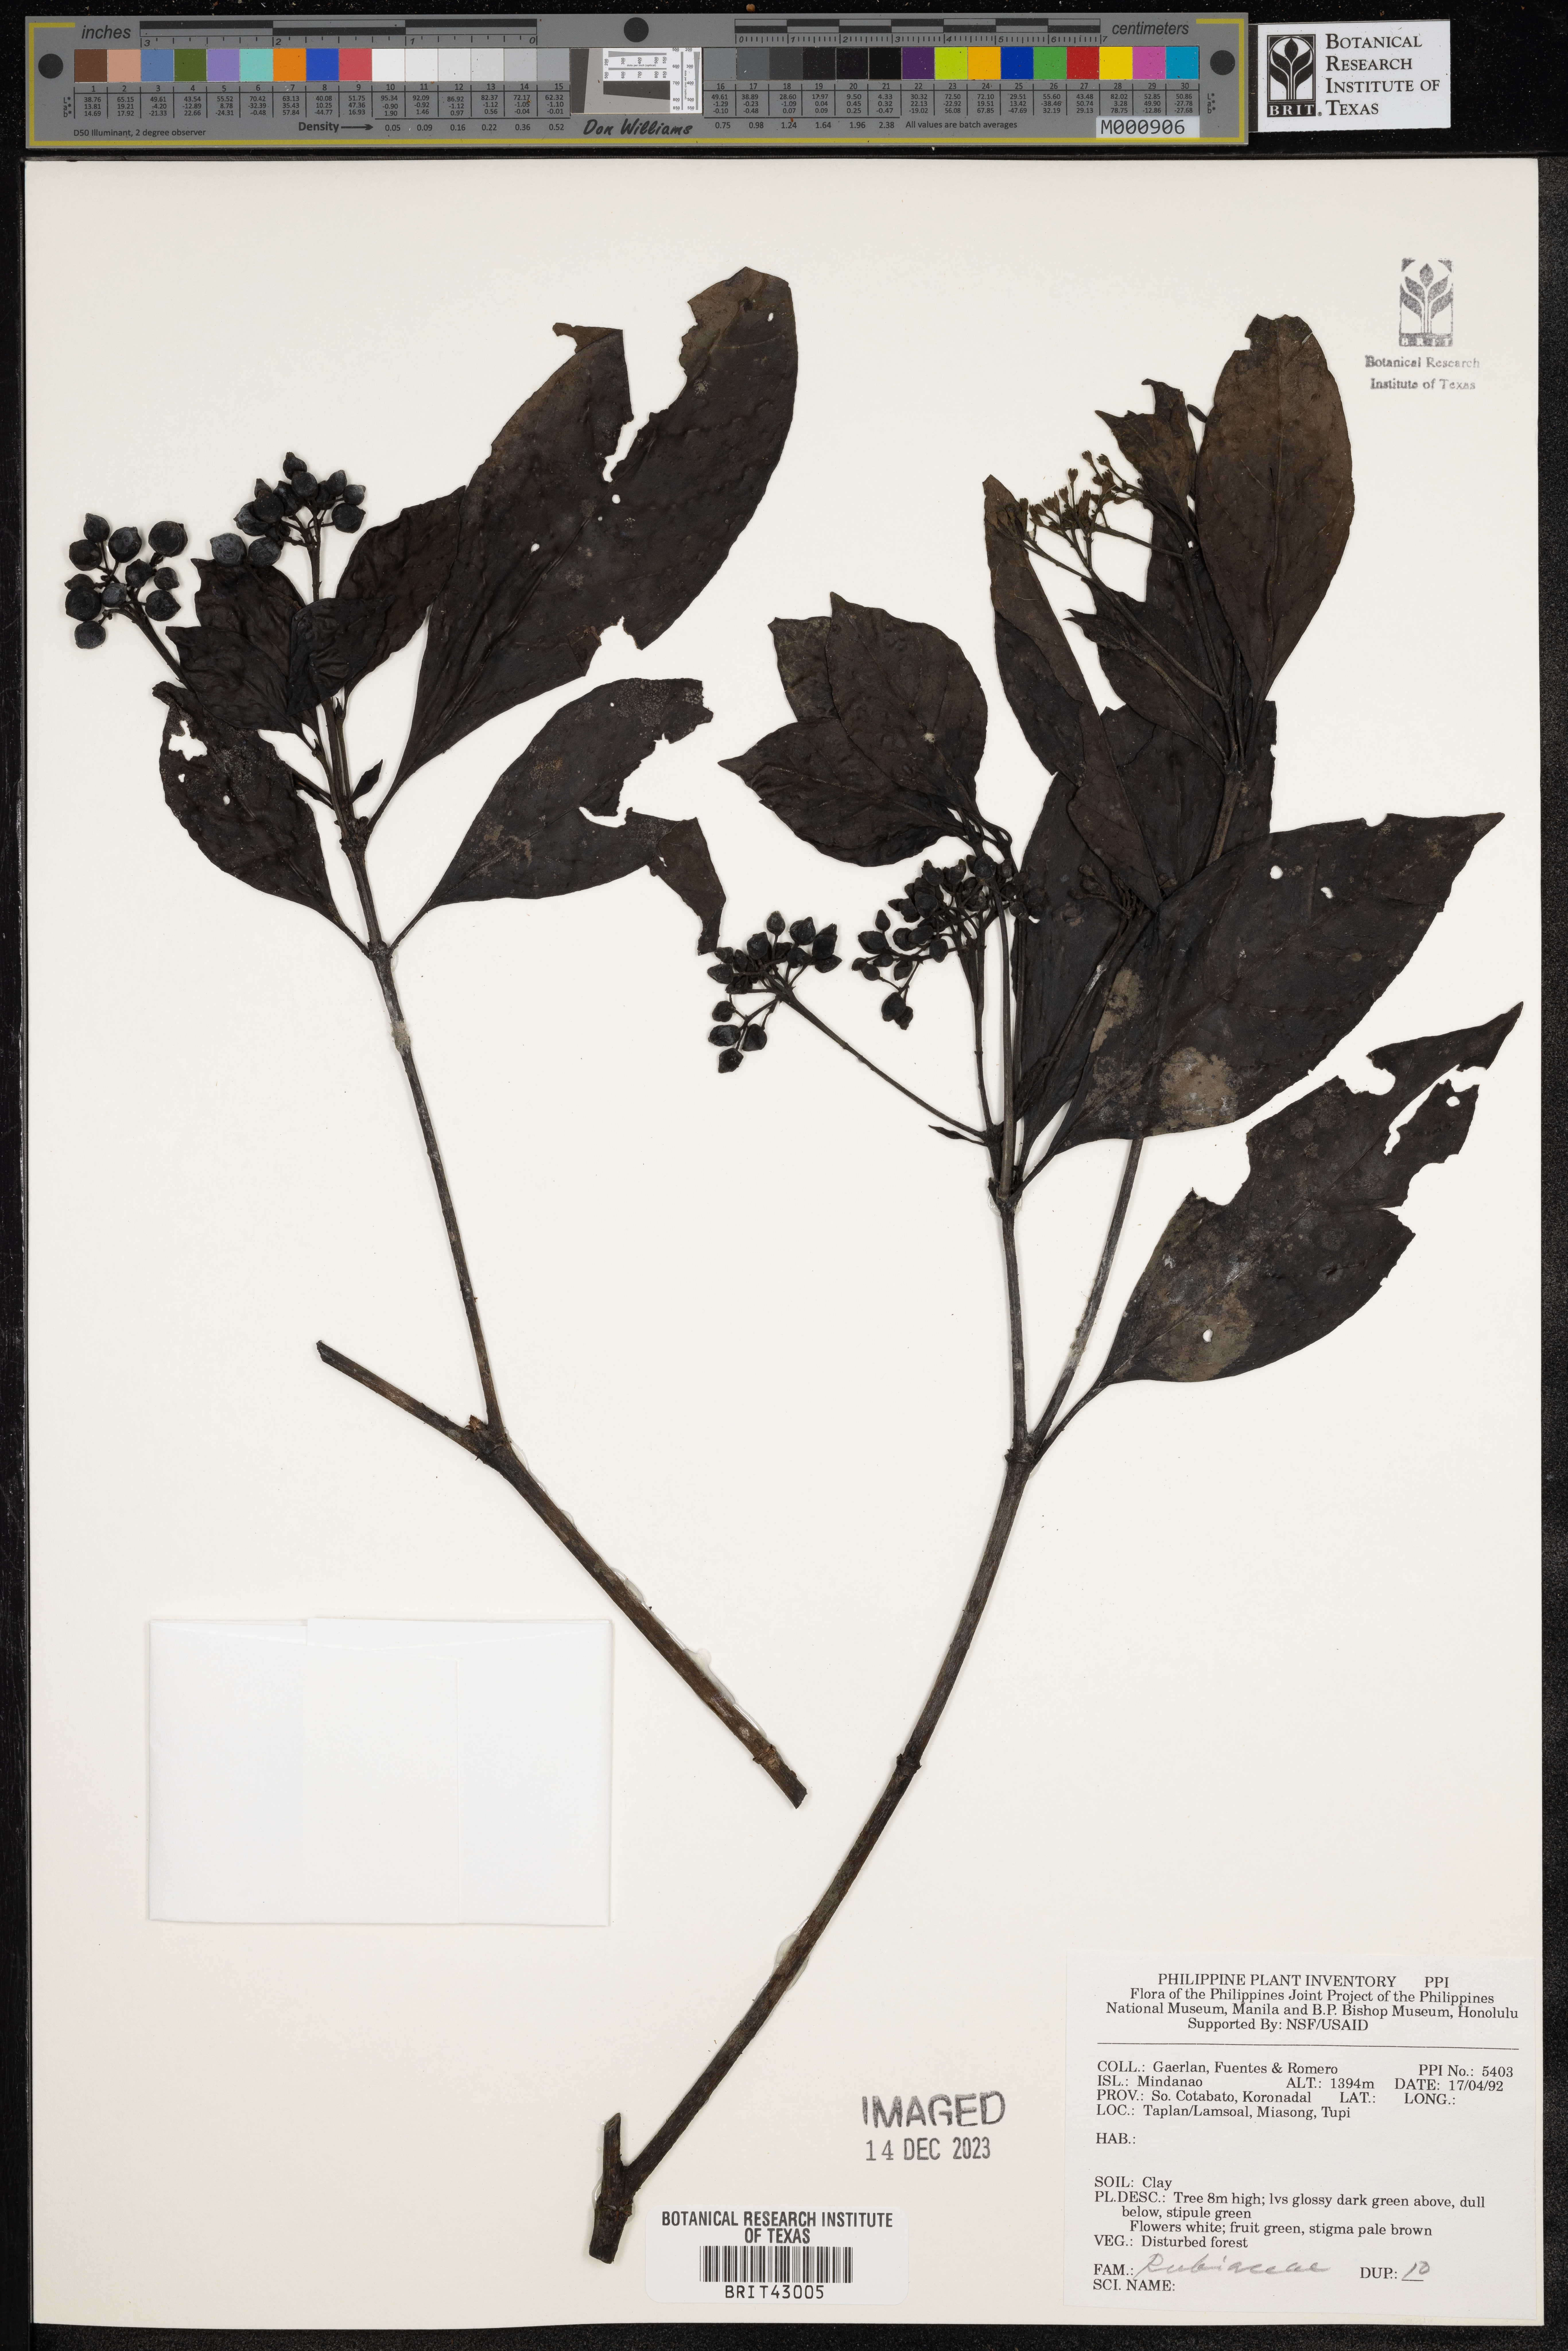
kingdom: Plantae
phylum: Tracheophyta
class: Magnoliopsida
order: Gentianales
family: Rubiaceae
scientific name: Rubiaceae
